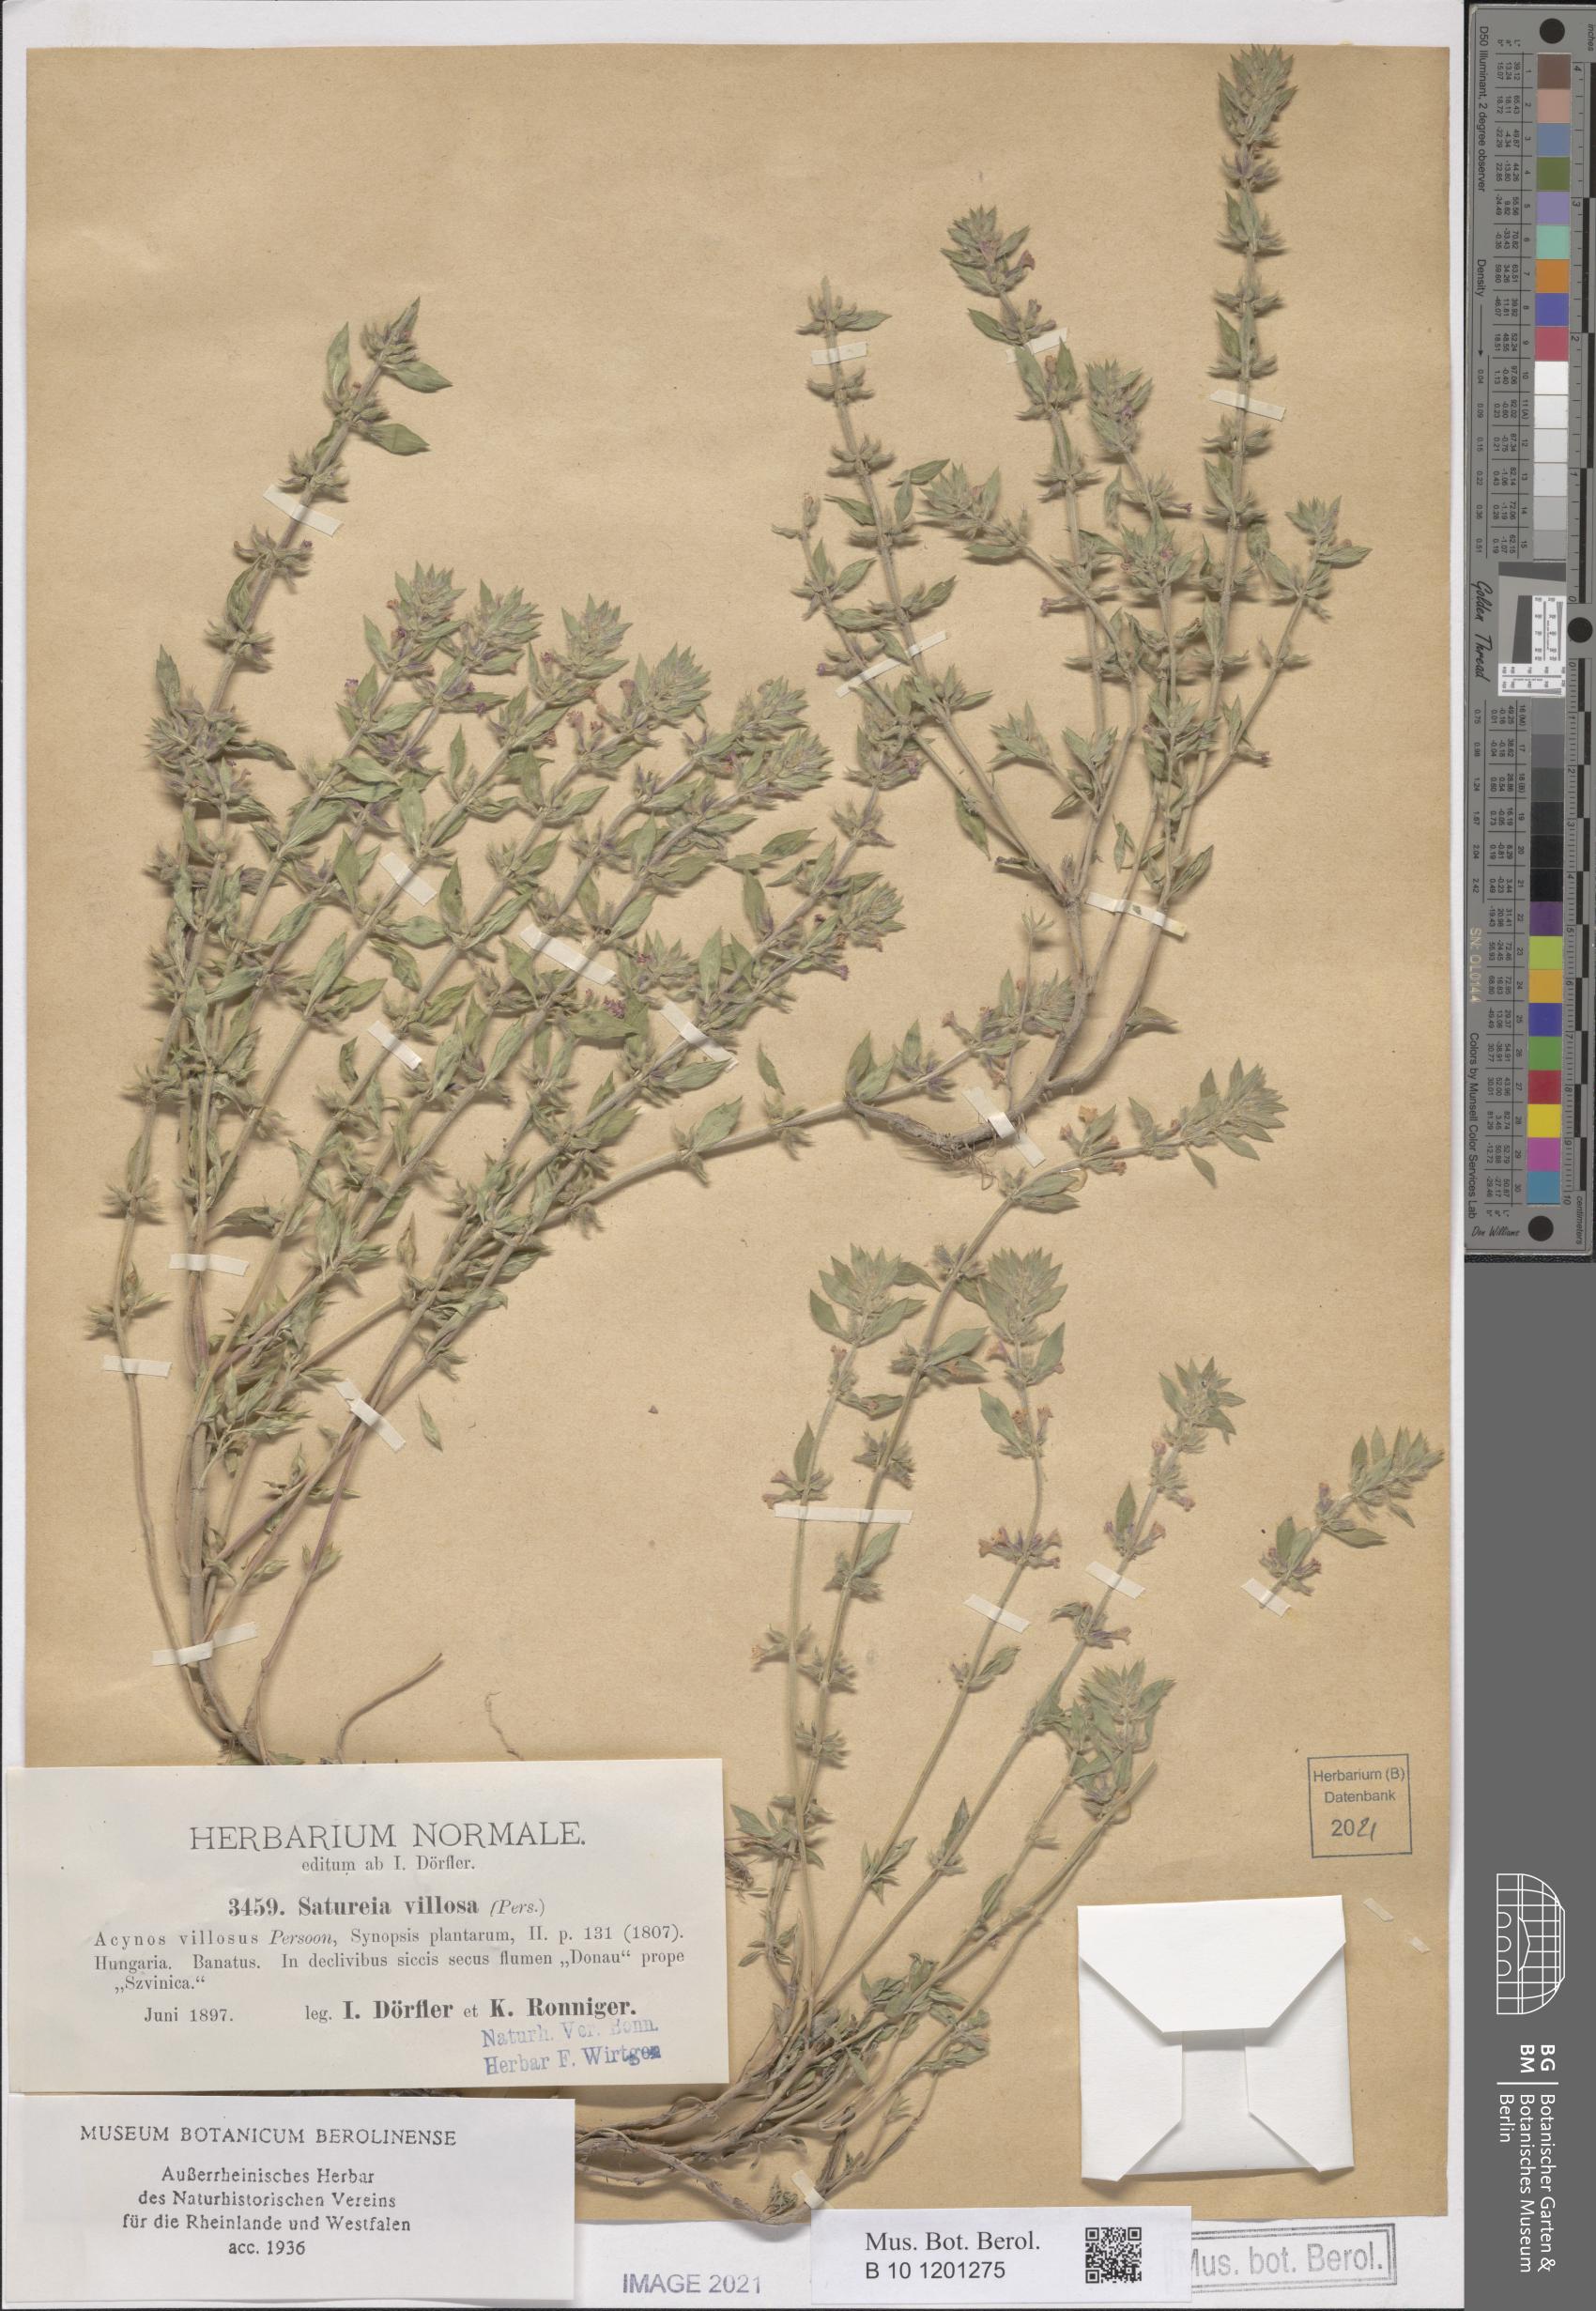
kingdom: Plantae
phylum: Tracheophyta
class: Magnoliopsida
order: Lamiales
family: Lamiaceae
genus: Clinopodium
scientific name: Clinopodium acinos
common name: Basil thyme
